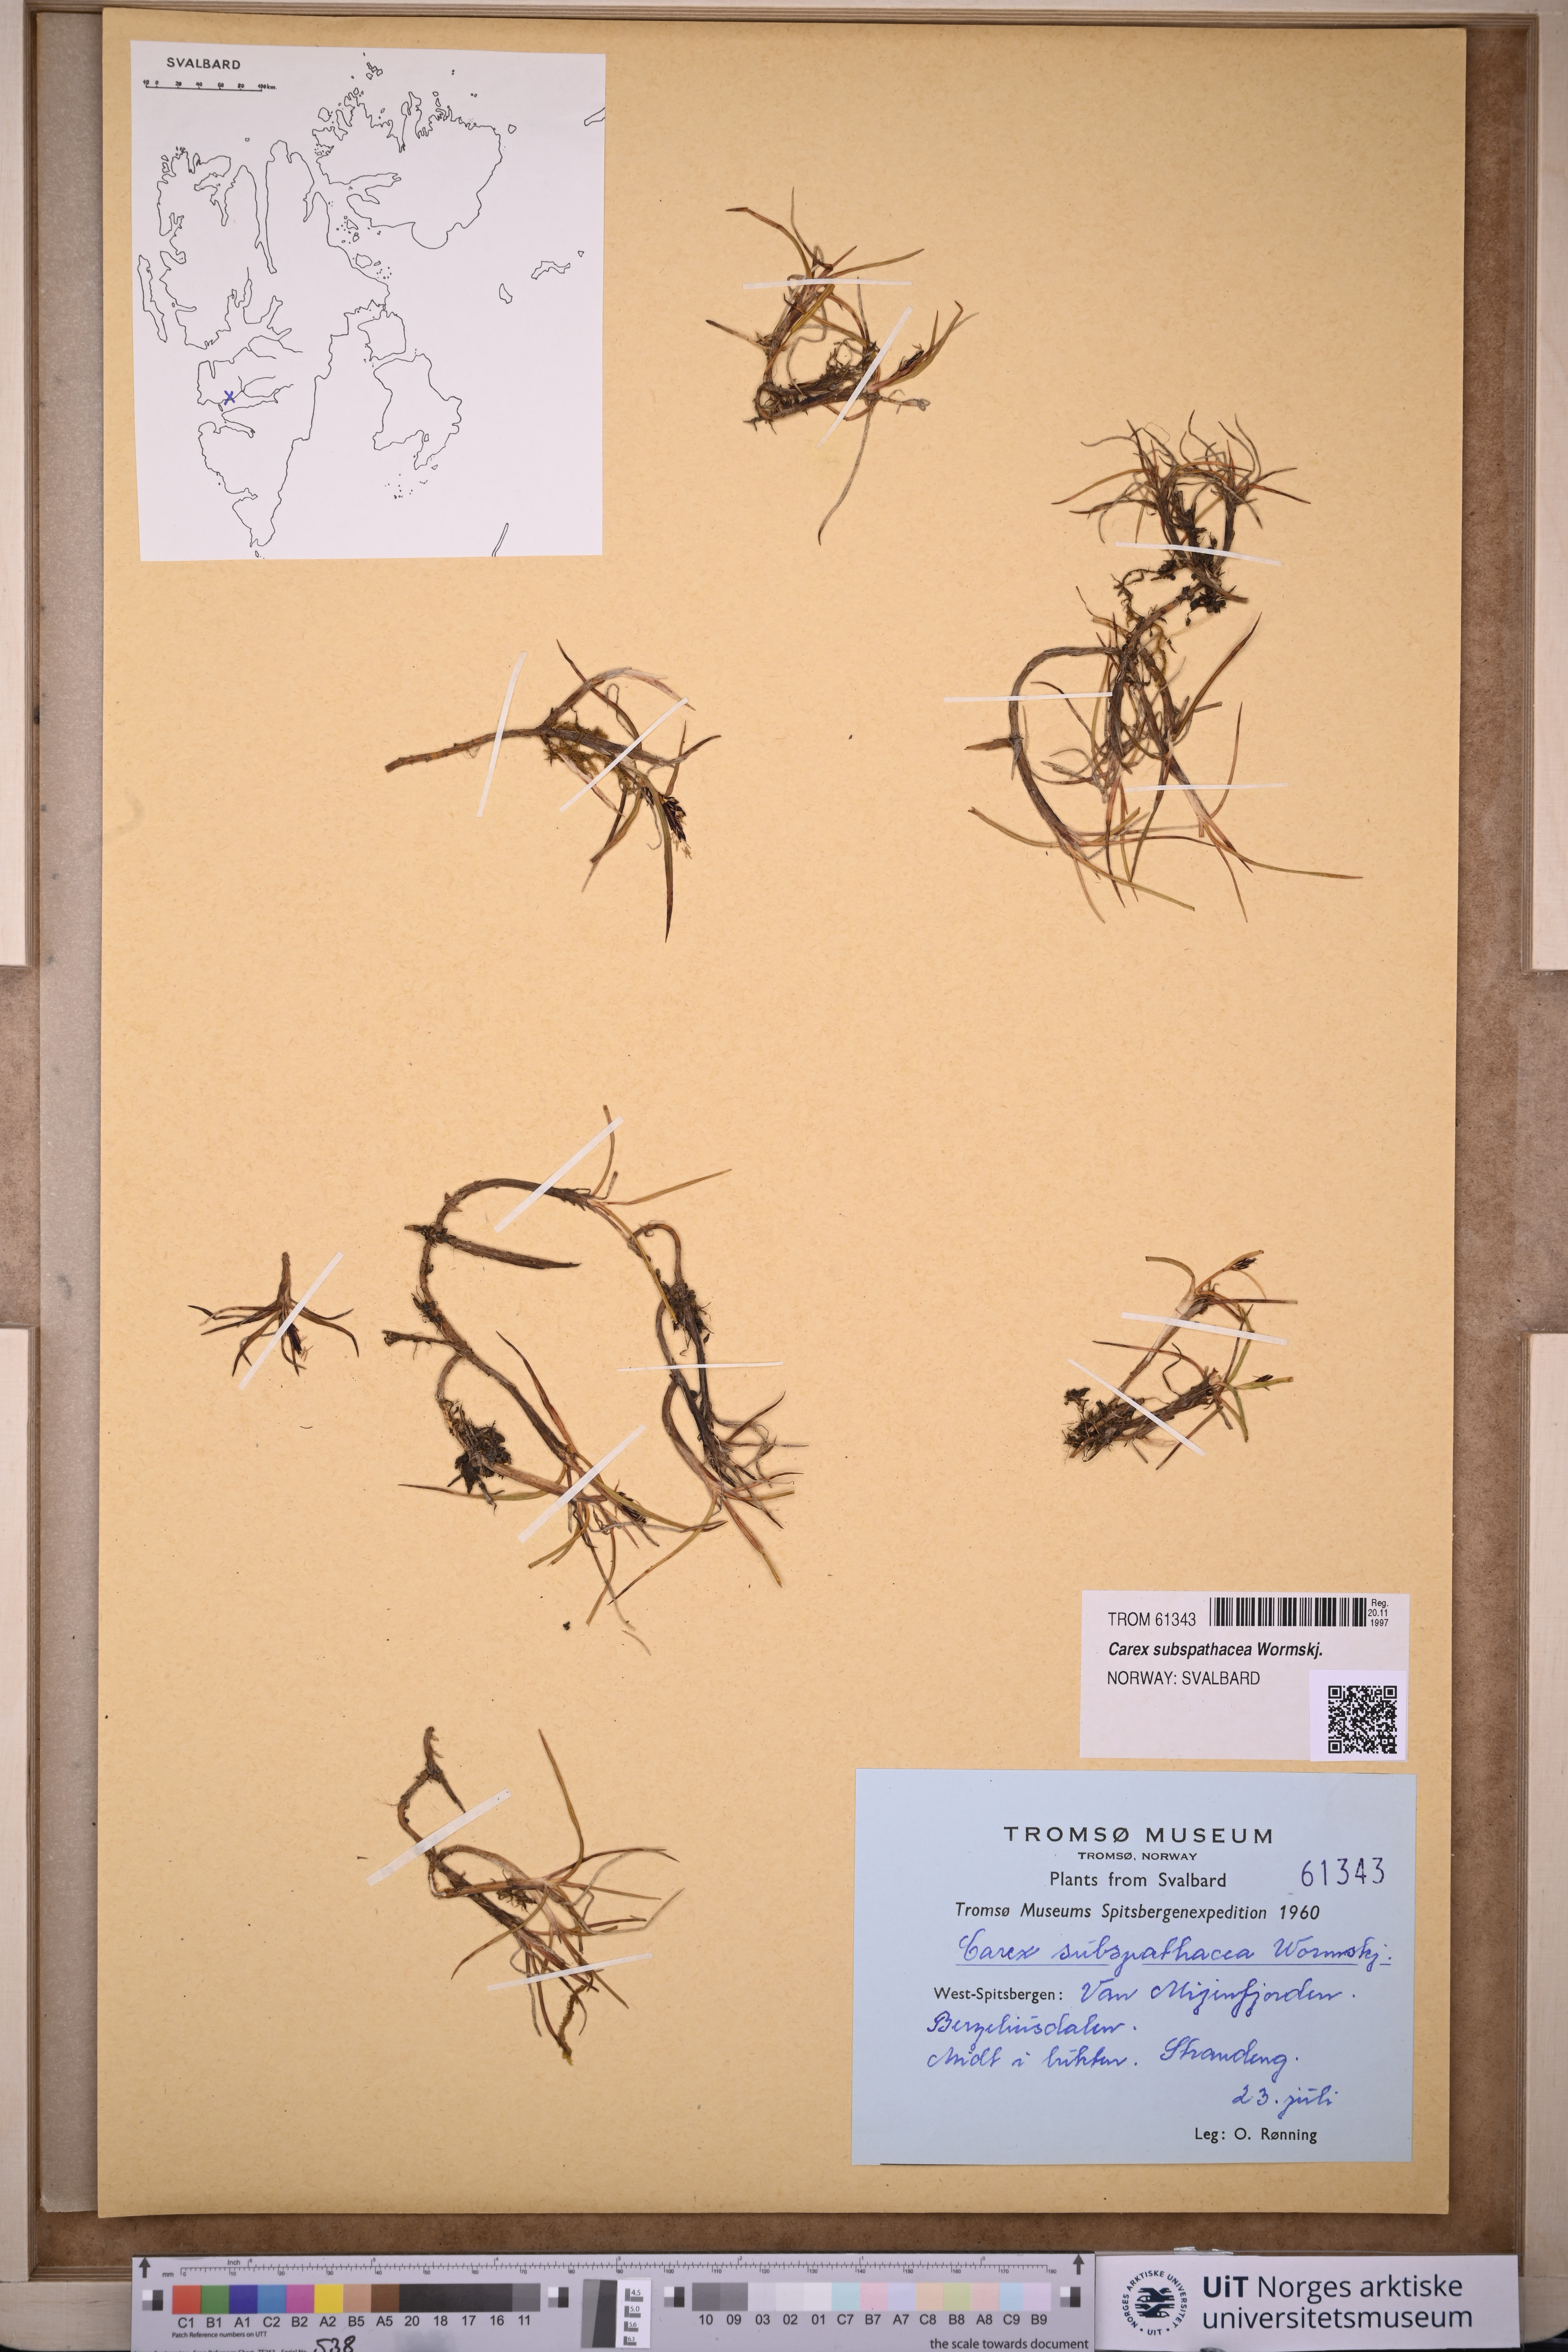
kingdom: Plantae
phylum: Tracheophyta
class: Liliopsida
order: Poales
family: Cyperaceae
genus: Carex
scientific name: Carex subspathacea
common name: Hoppner's sedge
